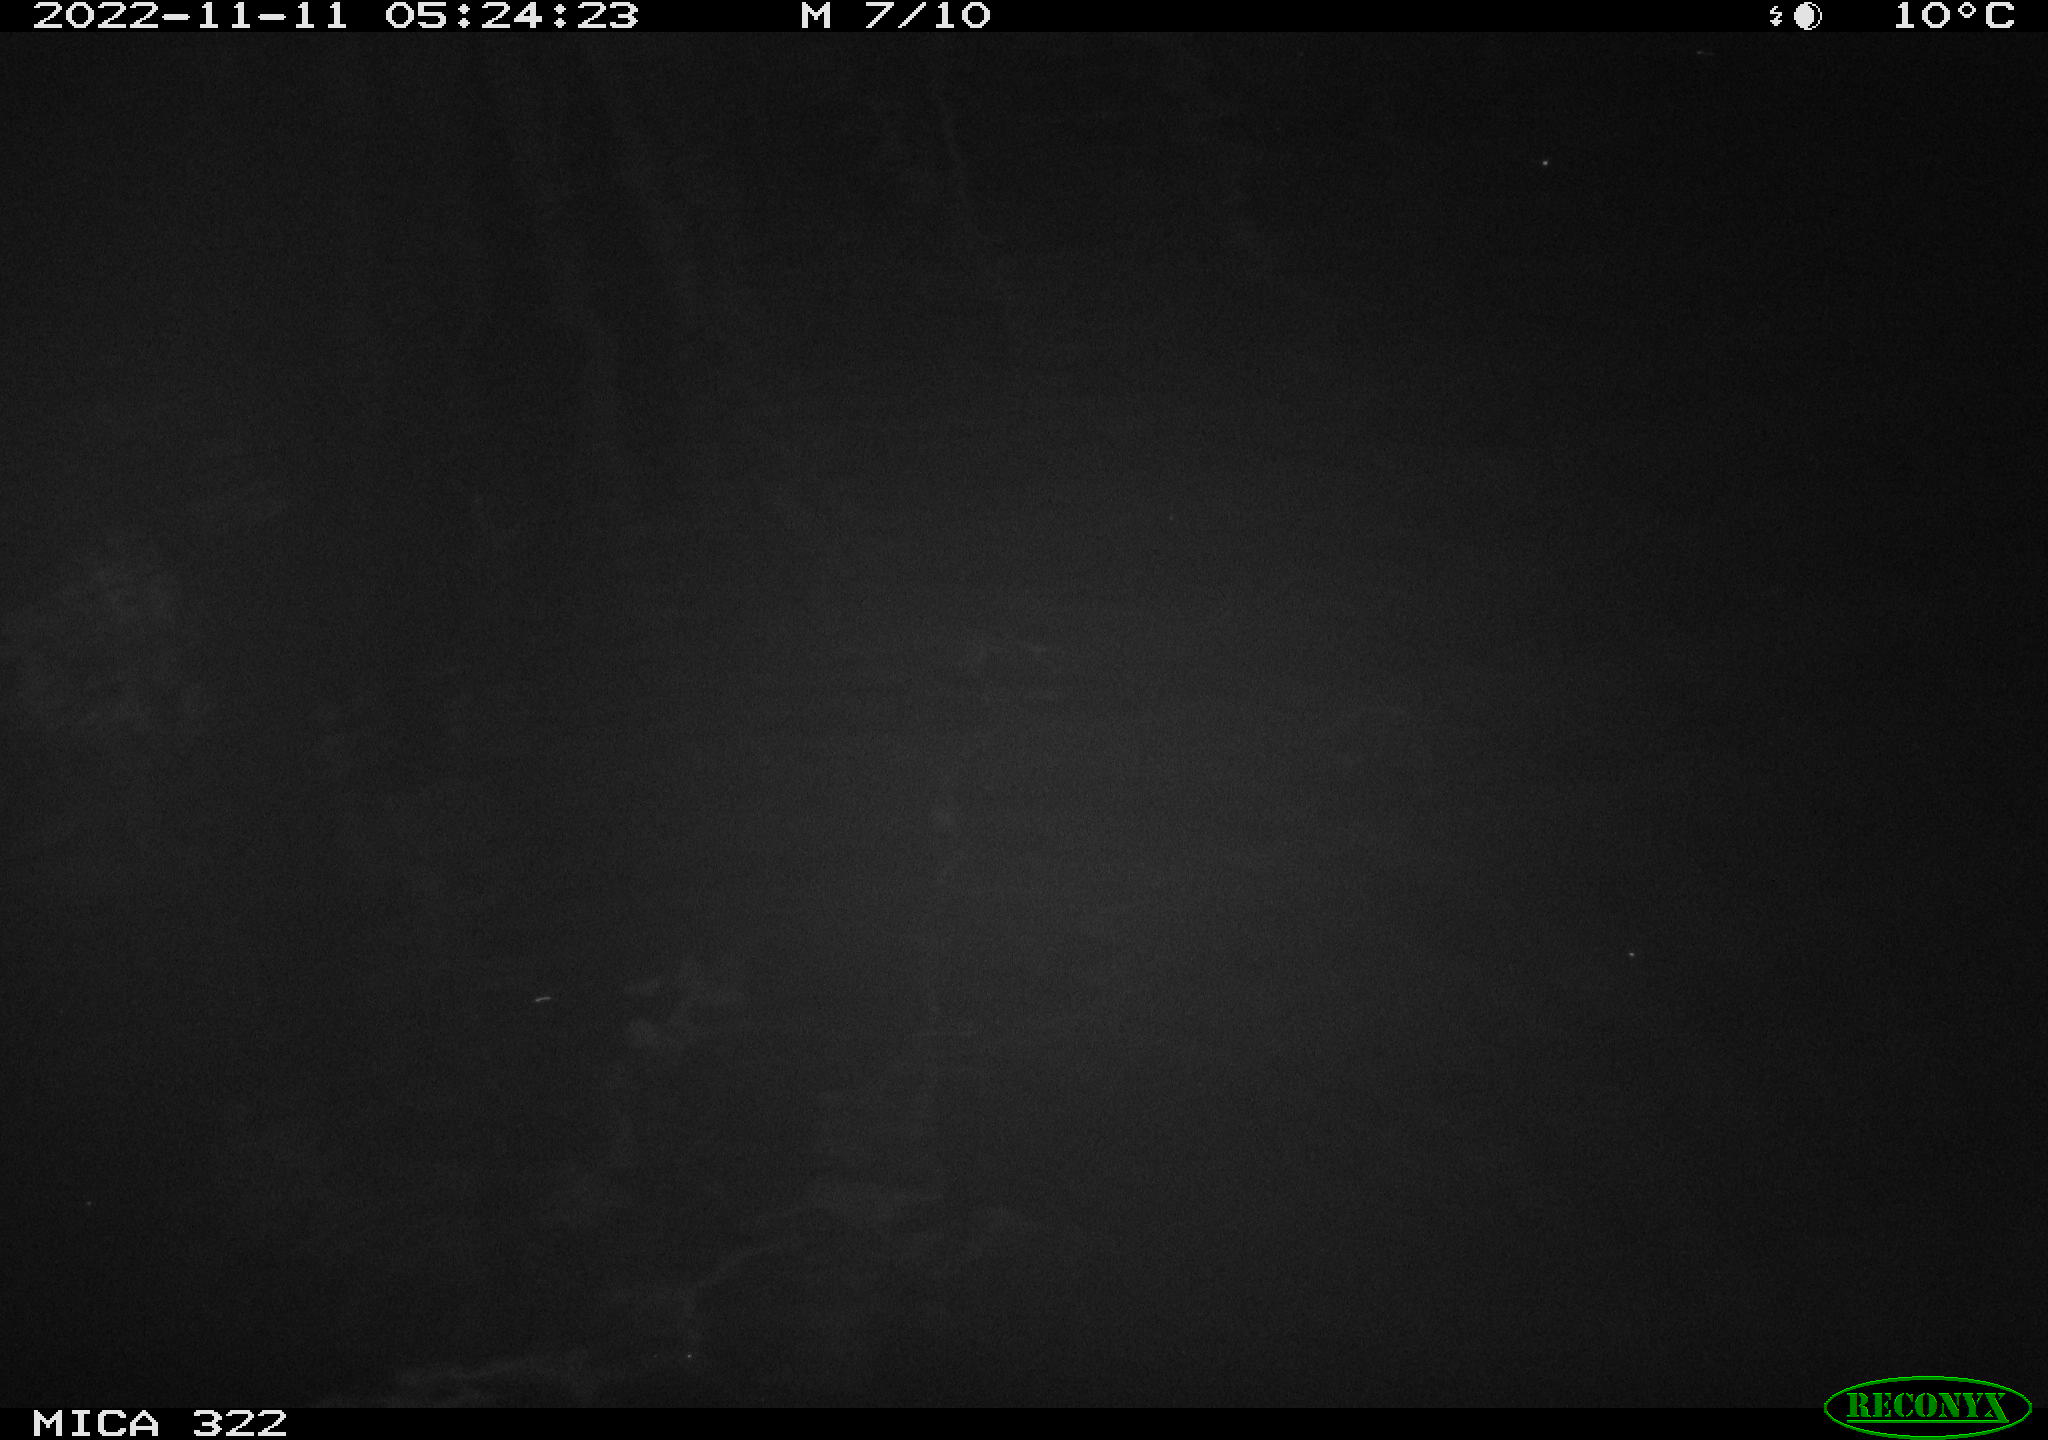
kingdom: Animalia
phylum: Chordata
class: Mammalia
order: Rodentia
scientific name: Rodentia
